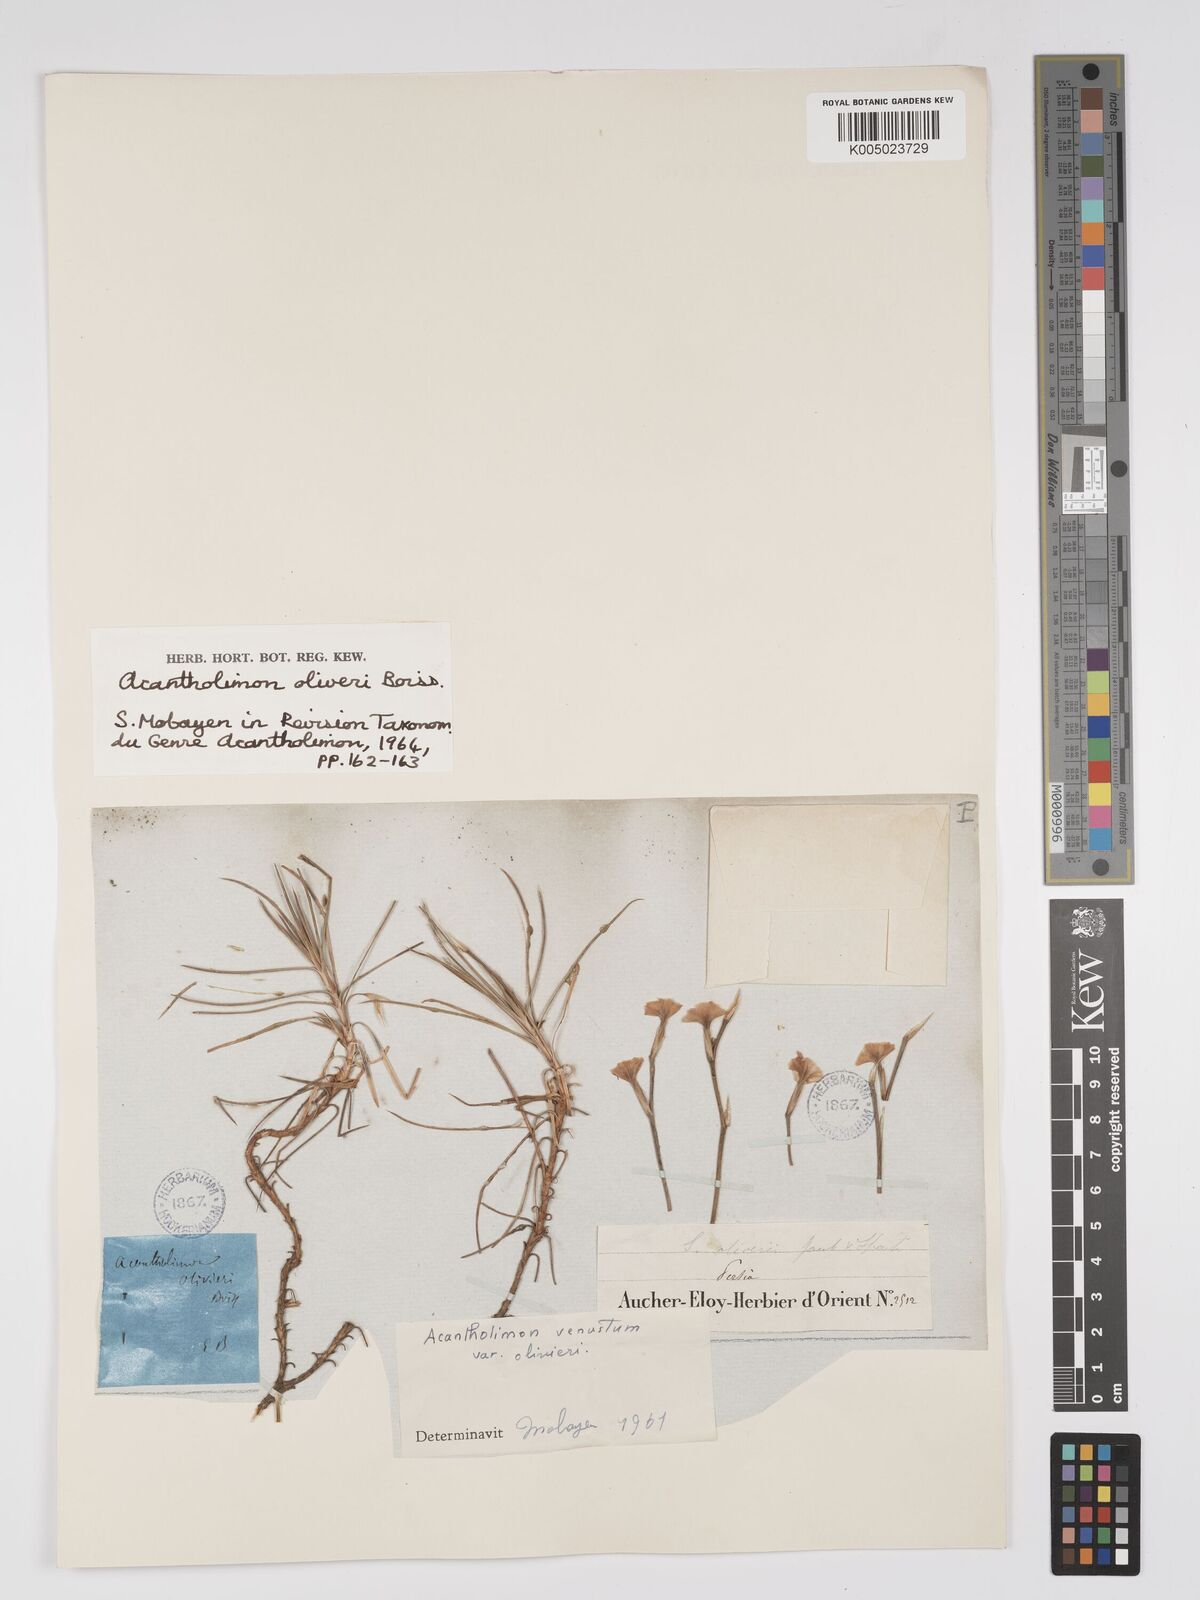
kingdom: Plantae
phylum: Tracheophyta
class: Magnoliopsida
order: Caryophyllales
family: Plumbaginaceae
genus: Acantholimon
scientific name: Acantholimon oliveri
